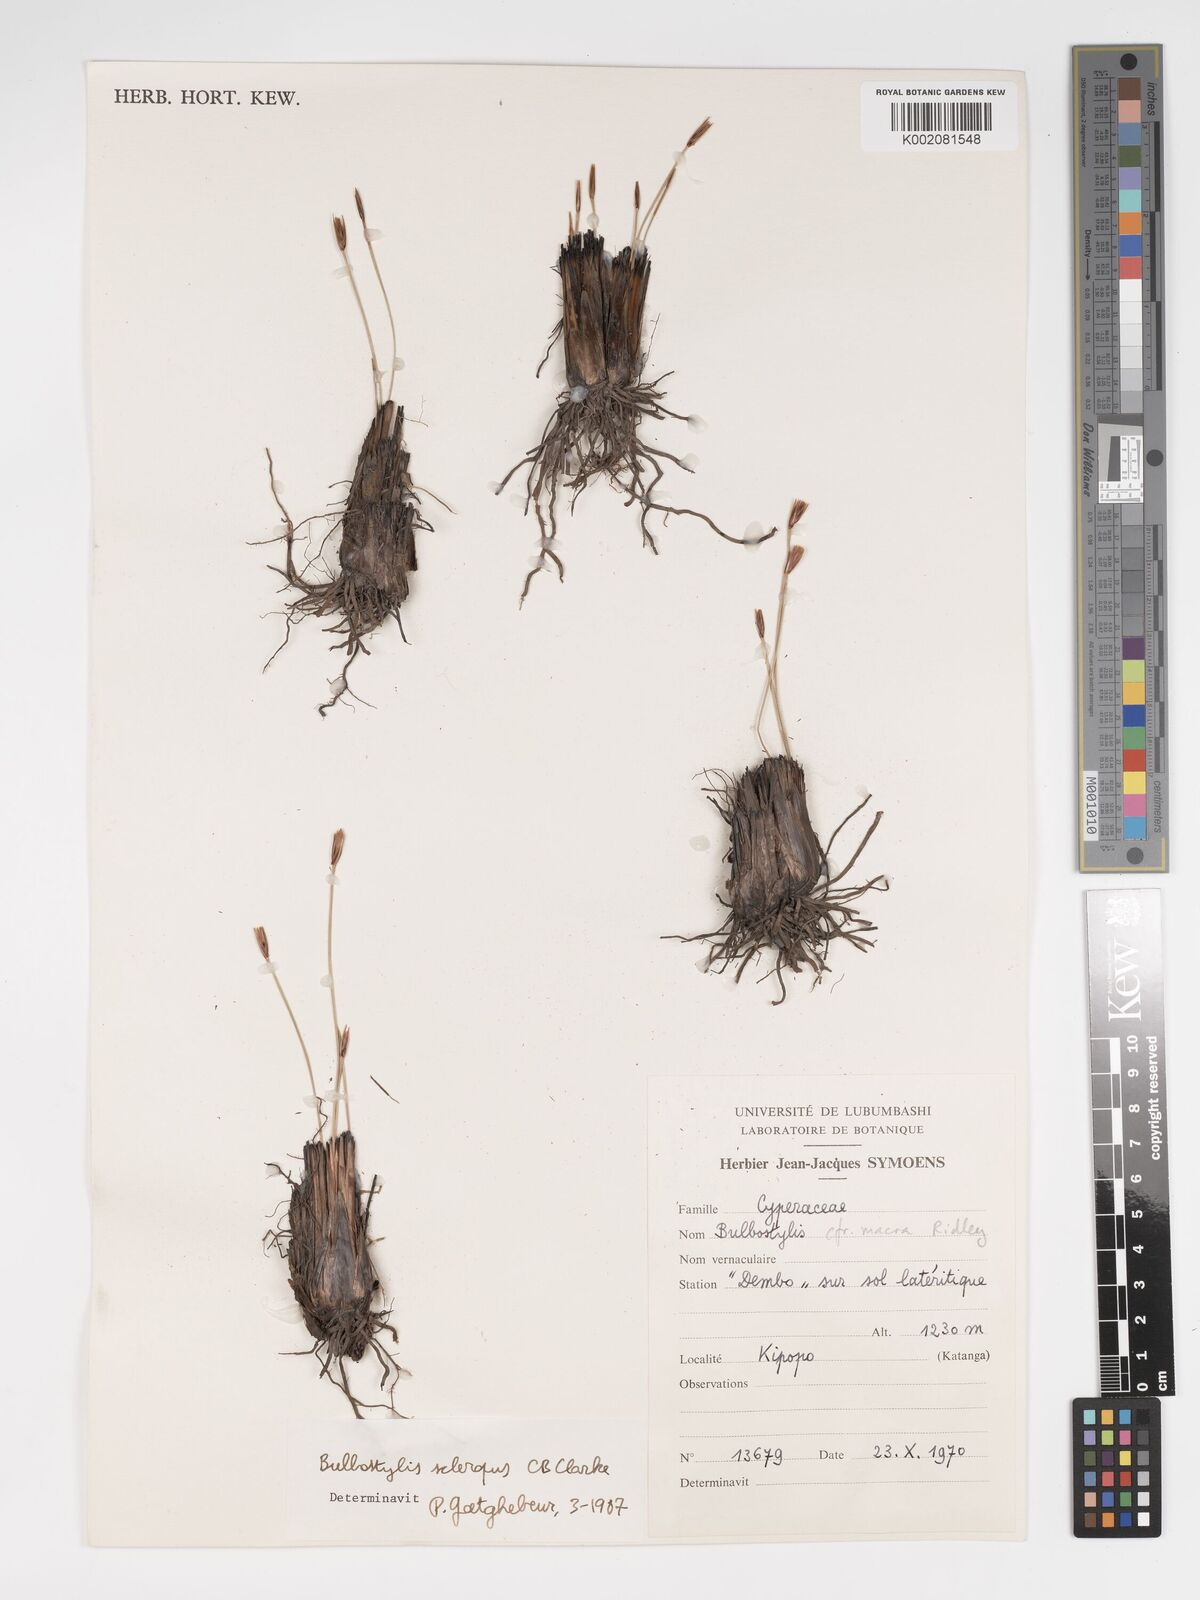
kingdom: Plantae
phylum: Tracheophyta
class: Liliopsida
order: Poales
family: Cyperaceae
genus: Bulbostylis
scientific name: Bulbostylis schoenoides
